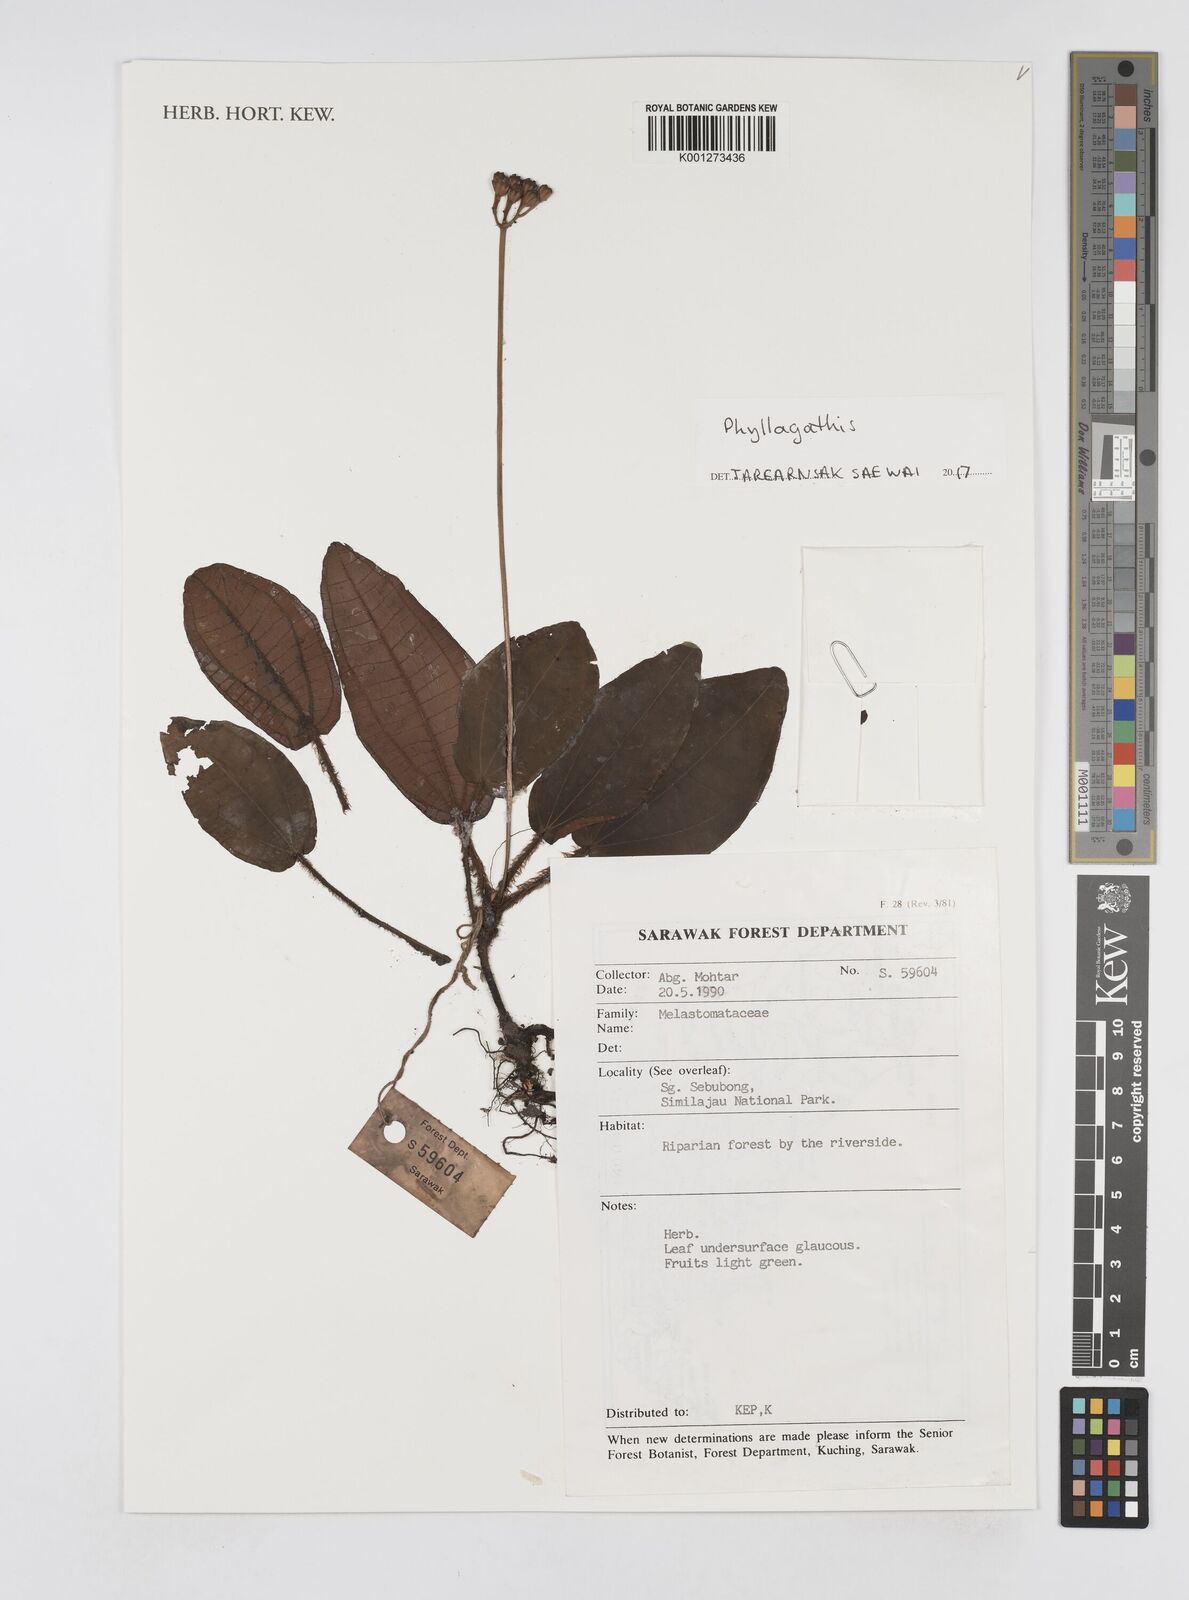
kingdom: Plantae
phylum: Tracheophyta
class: Magnoliopsida
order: Myrtales
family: Melastomataceae
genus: Phyllagathis
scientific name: Phyllagathis
